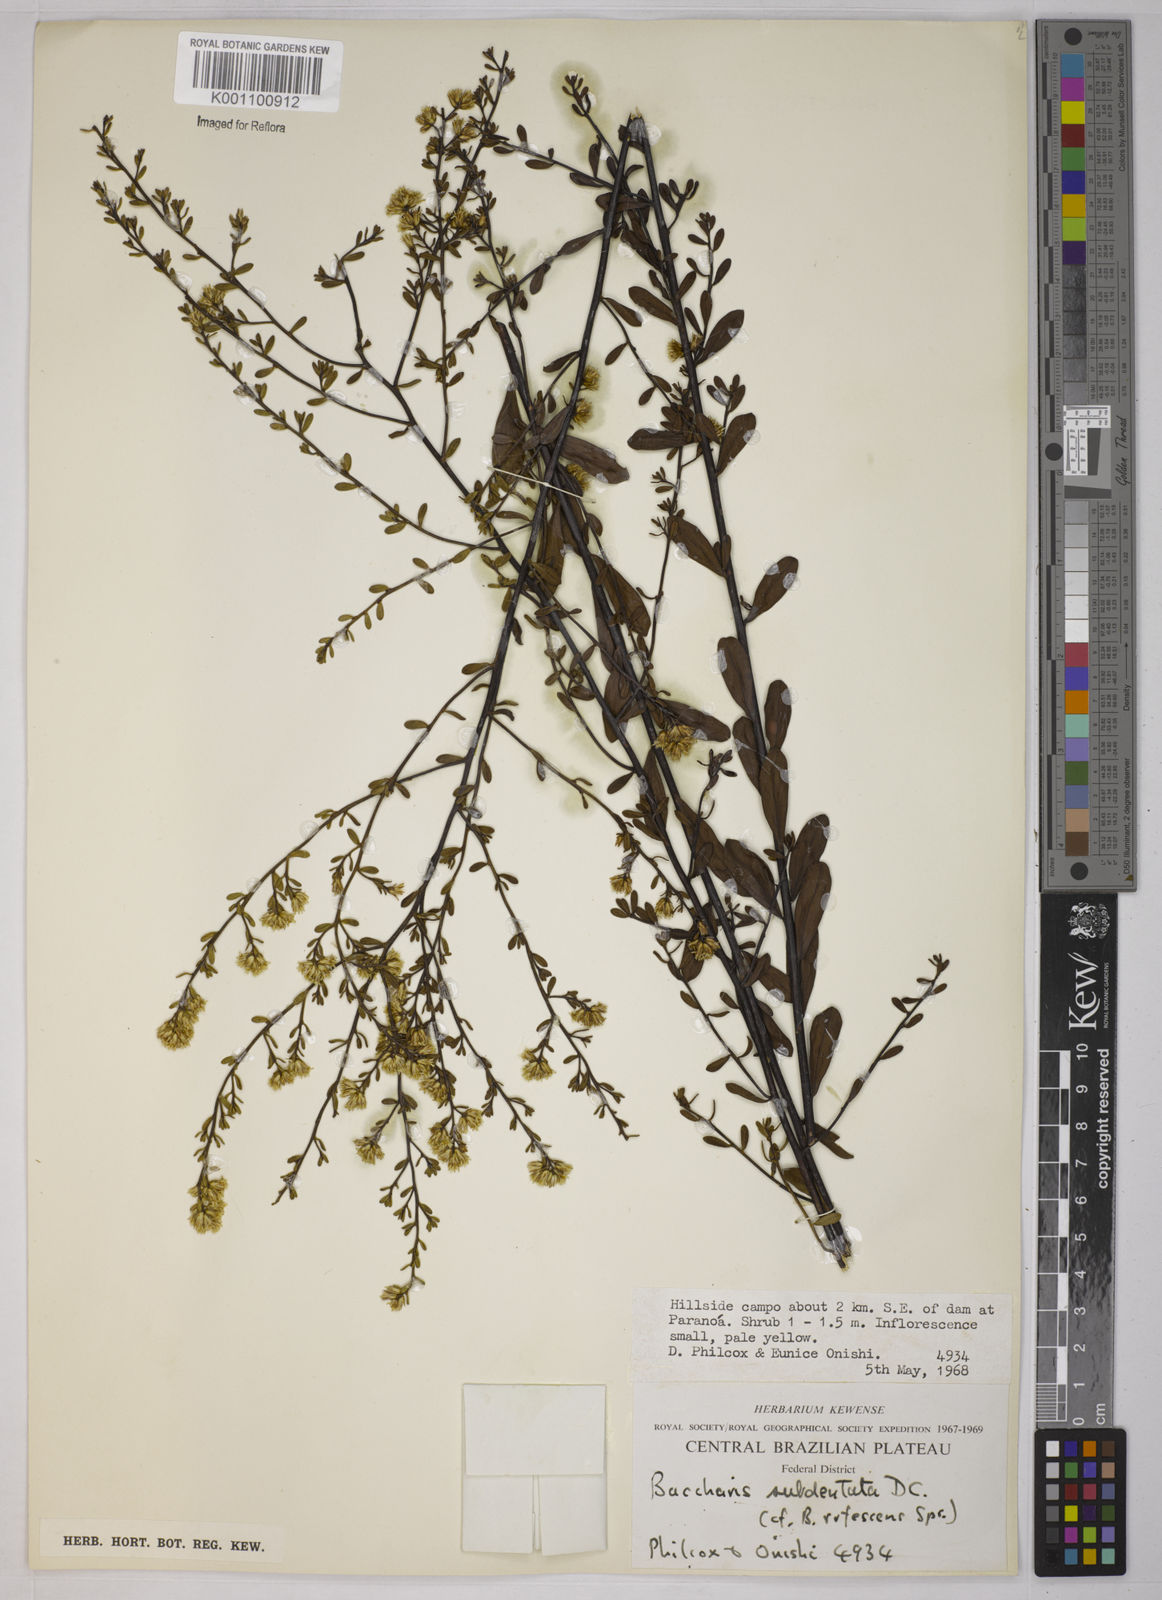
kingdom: Plantae
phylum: Tracheophyta
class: Magnoliopsida
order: Asterales
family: Asteraceae
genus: Baccharis
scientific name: Baccharis subdentata
